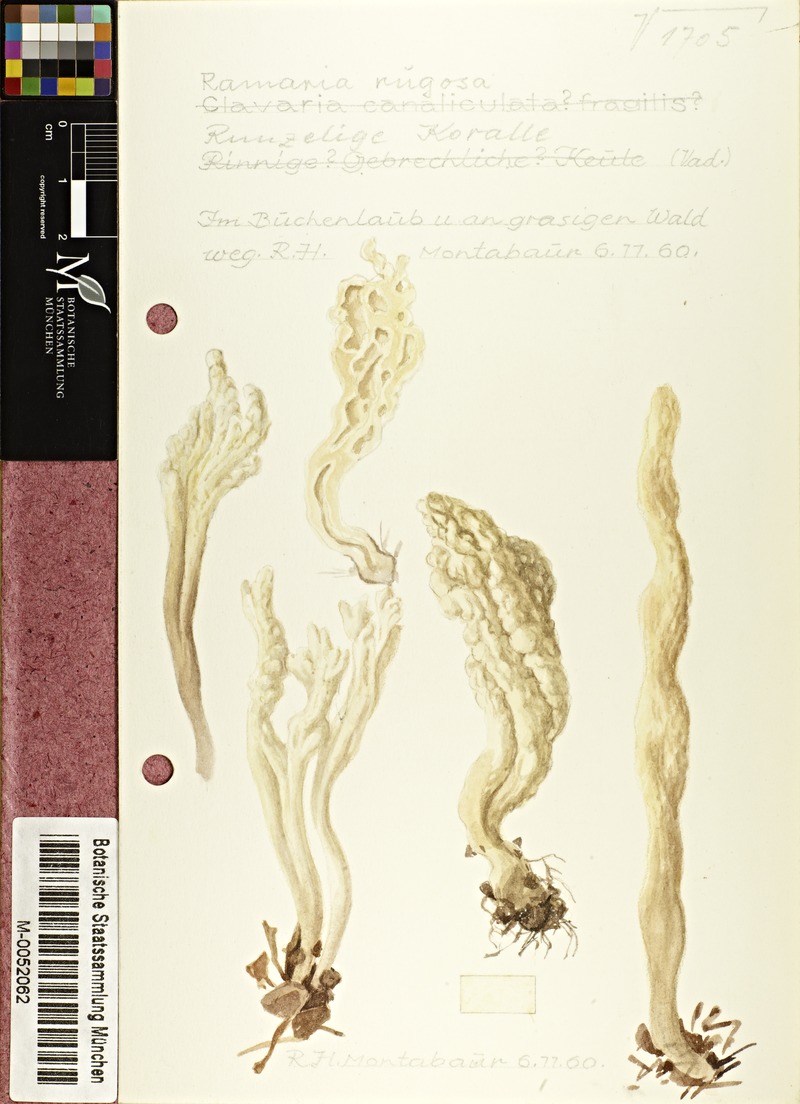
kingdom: Fungi
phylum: Basidiomycota
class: Agaricomycetes
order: Cantharellales
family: Hydnaceae
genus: Clavulina
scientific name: Clavulina rugosa
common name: Wrinkled club
